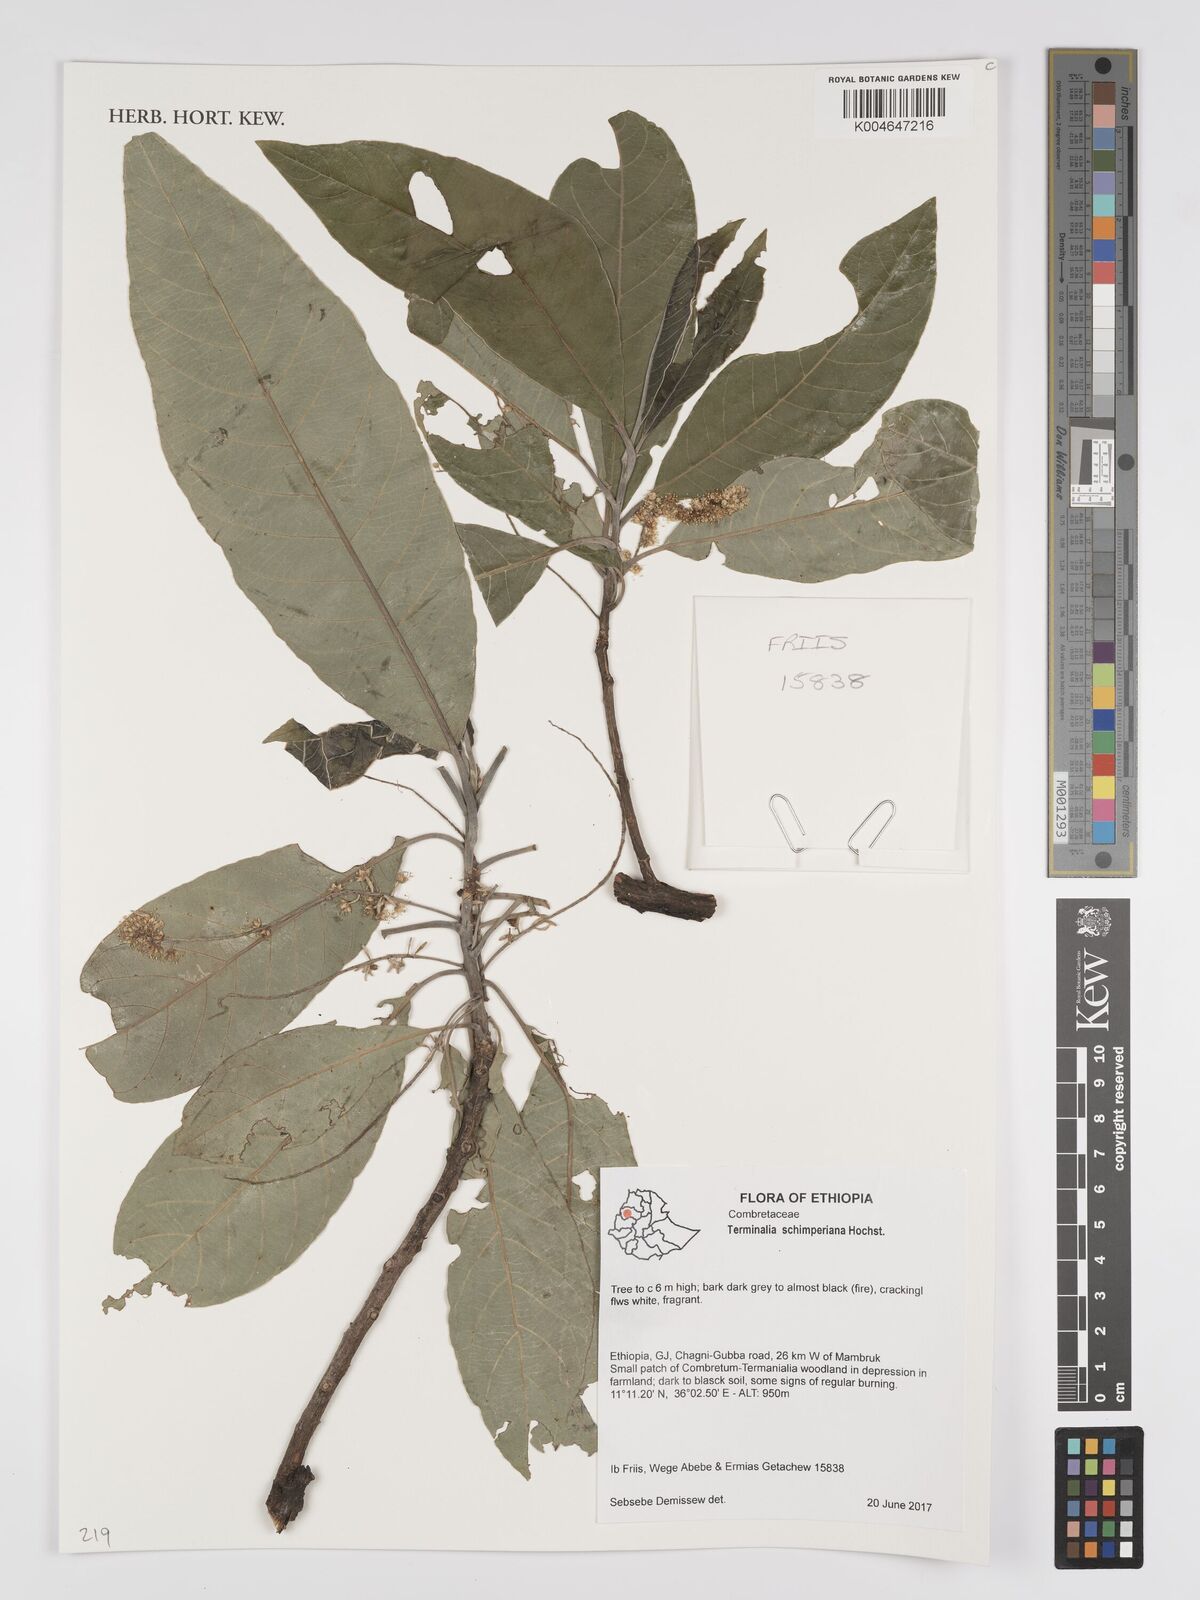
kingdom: Plantae
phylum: Tracheophyta
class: Magnoliopsida
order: Myrtales
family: Combretaceae
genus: Terminalia
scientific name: Terminalia schimperiana
